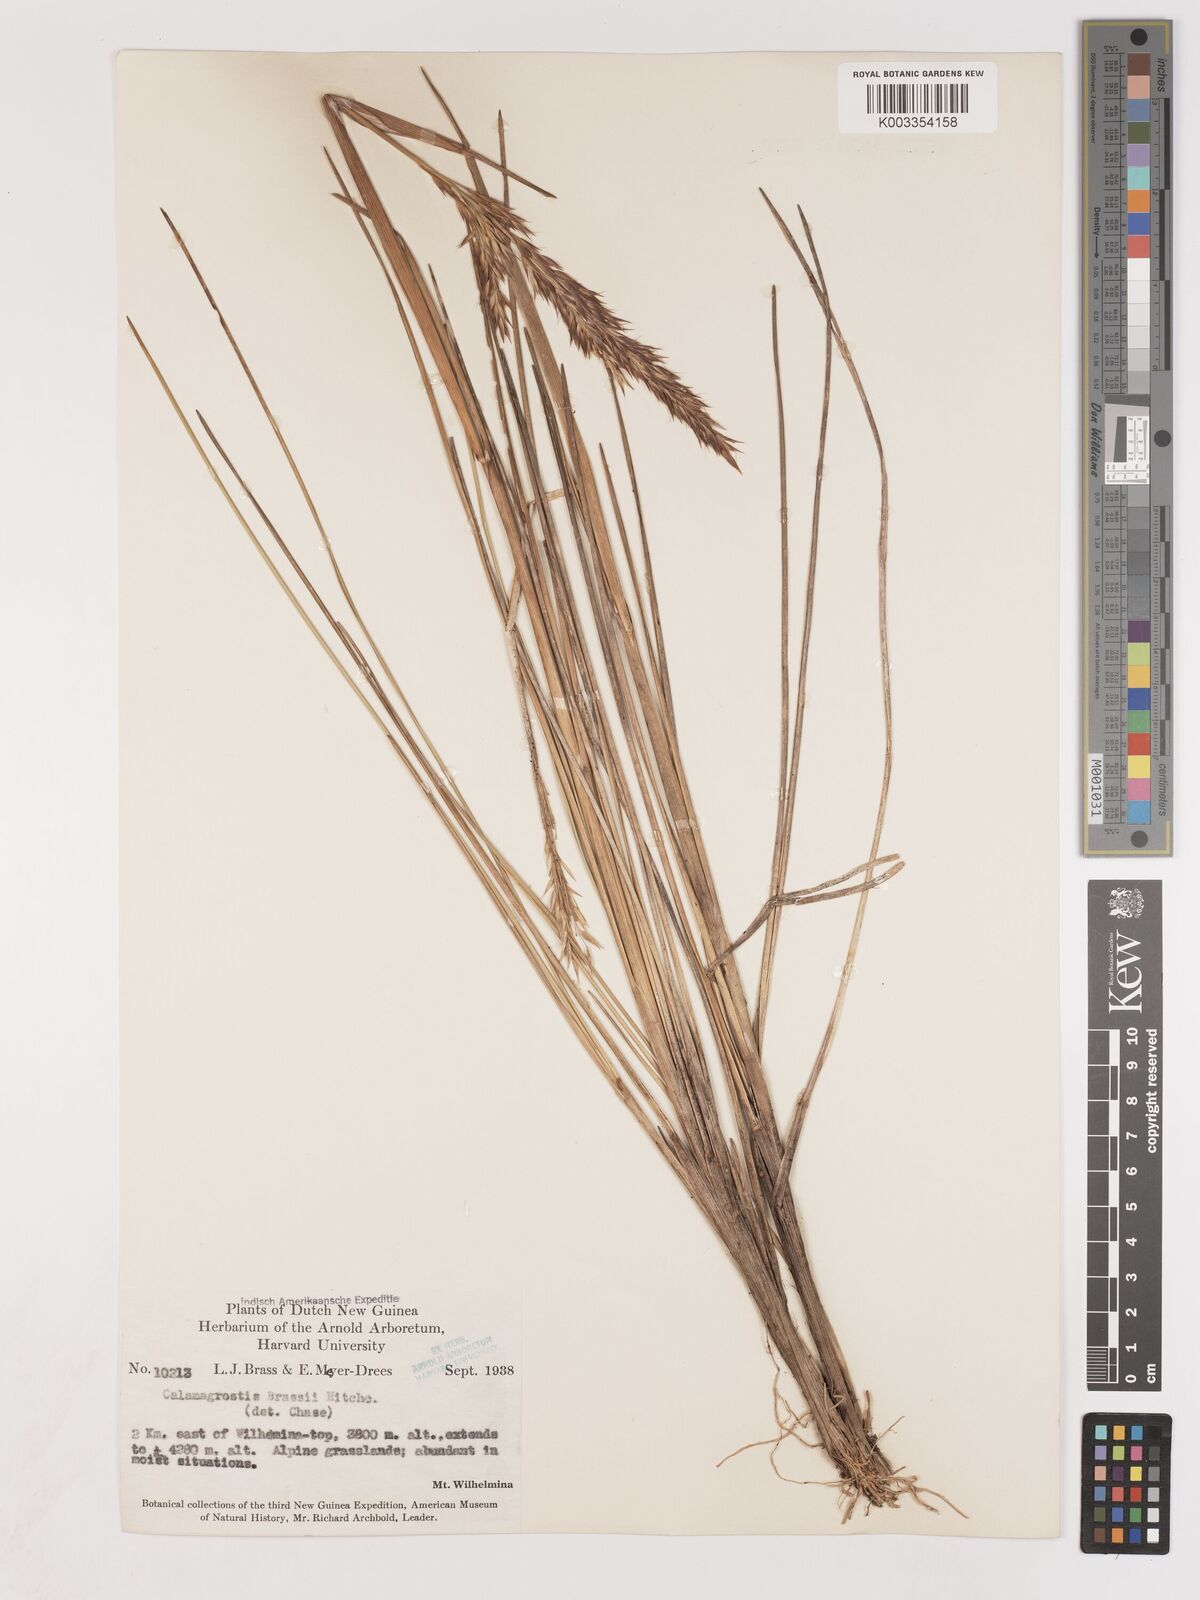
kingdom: Plantae
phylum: Tracheophyta
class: Liliopsida
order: Poales
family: Poaceae
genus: Calamagrostis
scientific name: Calamagrostis brassii
